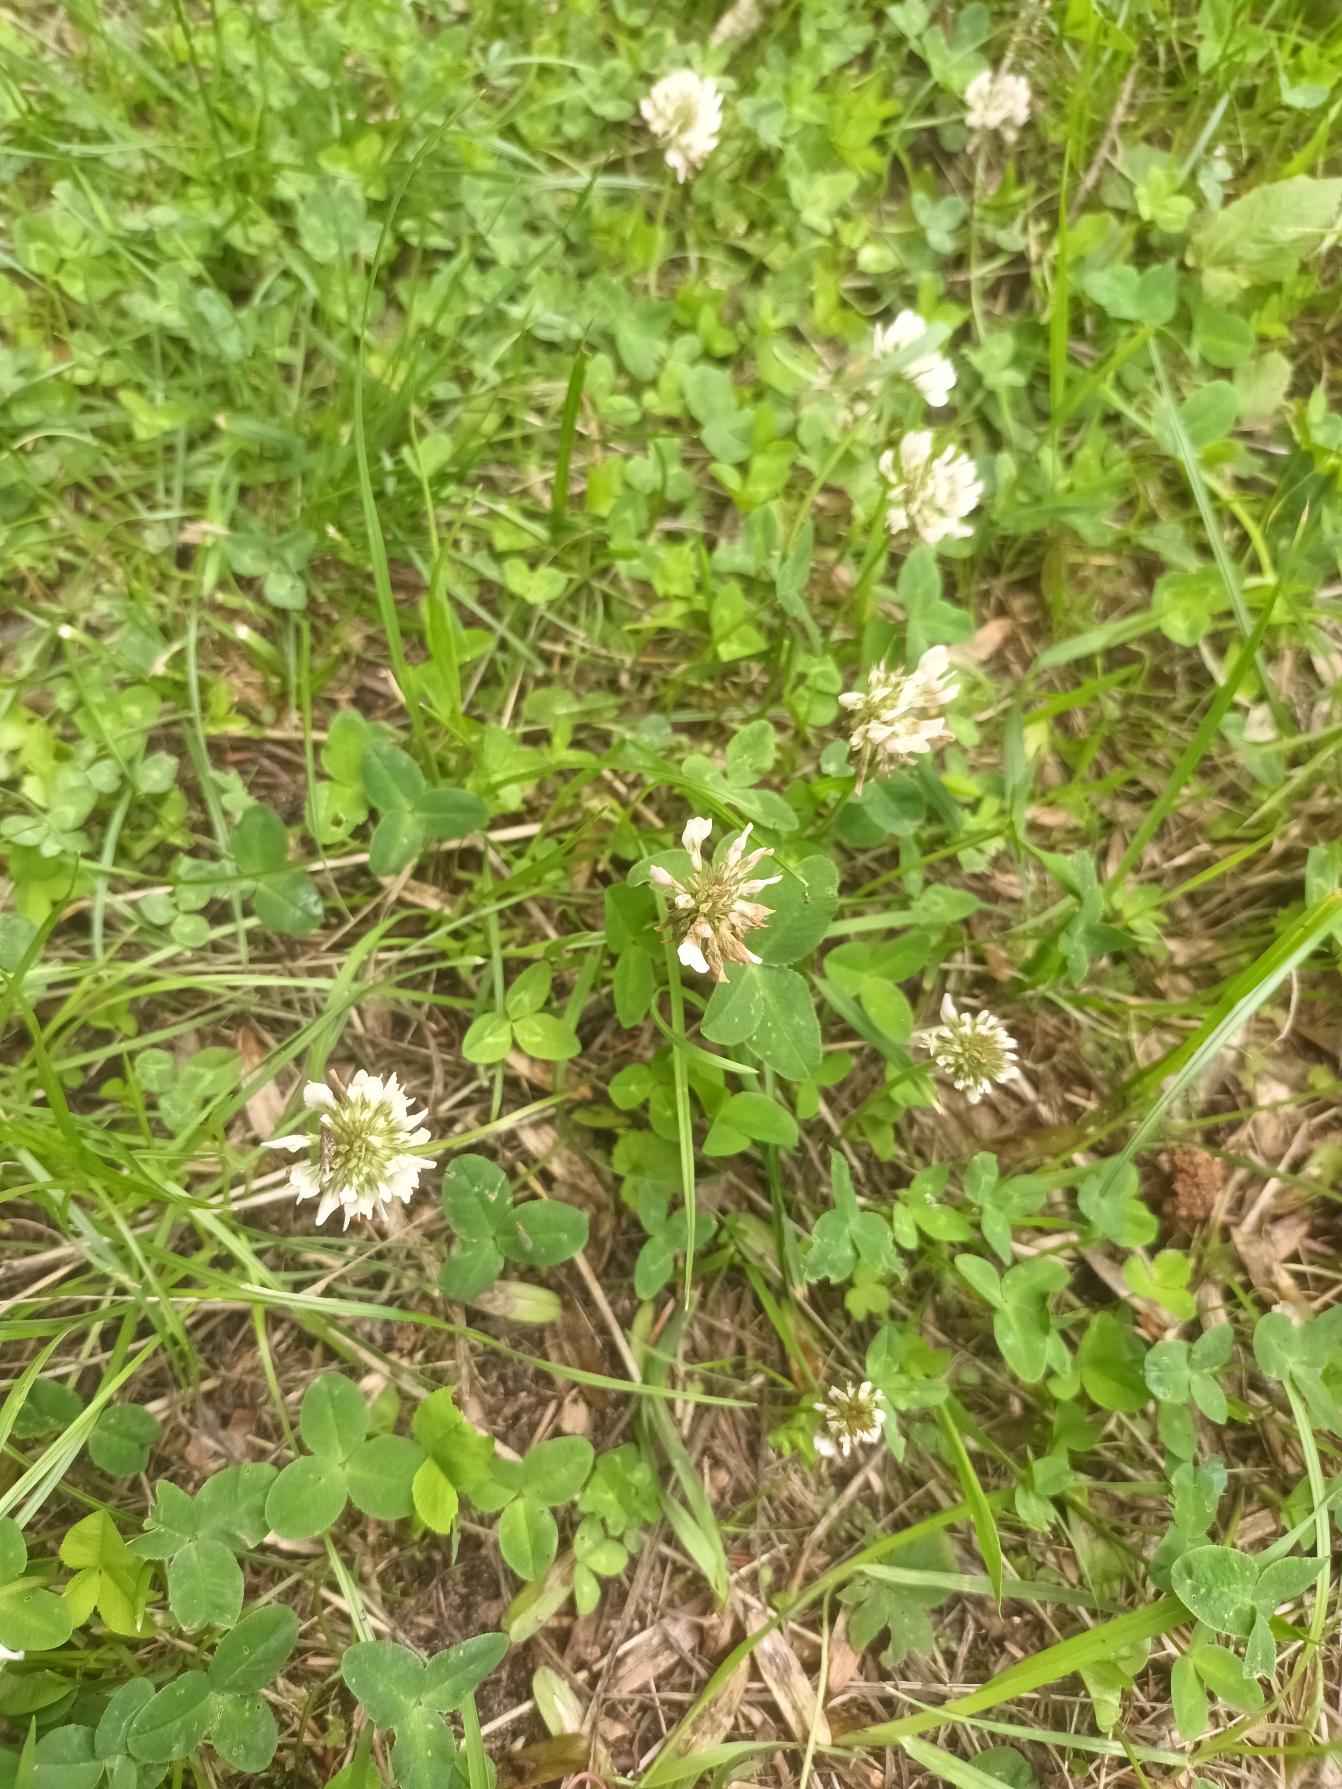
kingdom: Plantae
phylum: Tracheophyta
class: Magnoliopsida
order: Fabales
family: Fabaceae
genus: Trifolium
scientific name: Trifolium repens
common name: Hvid-kløver
